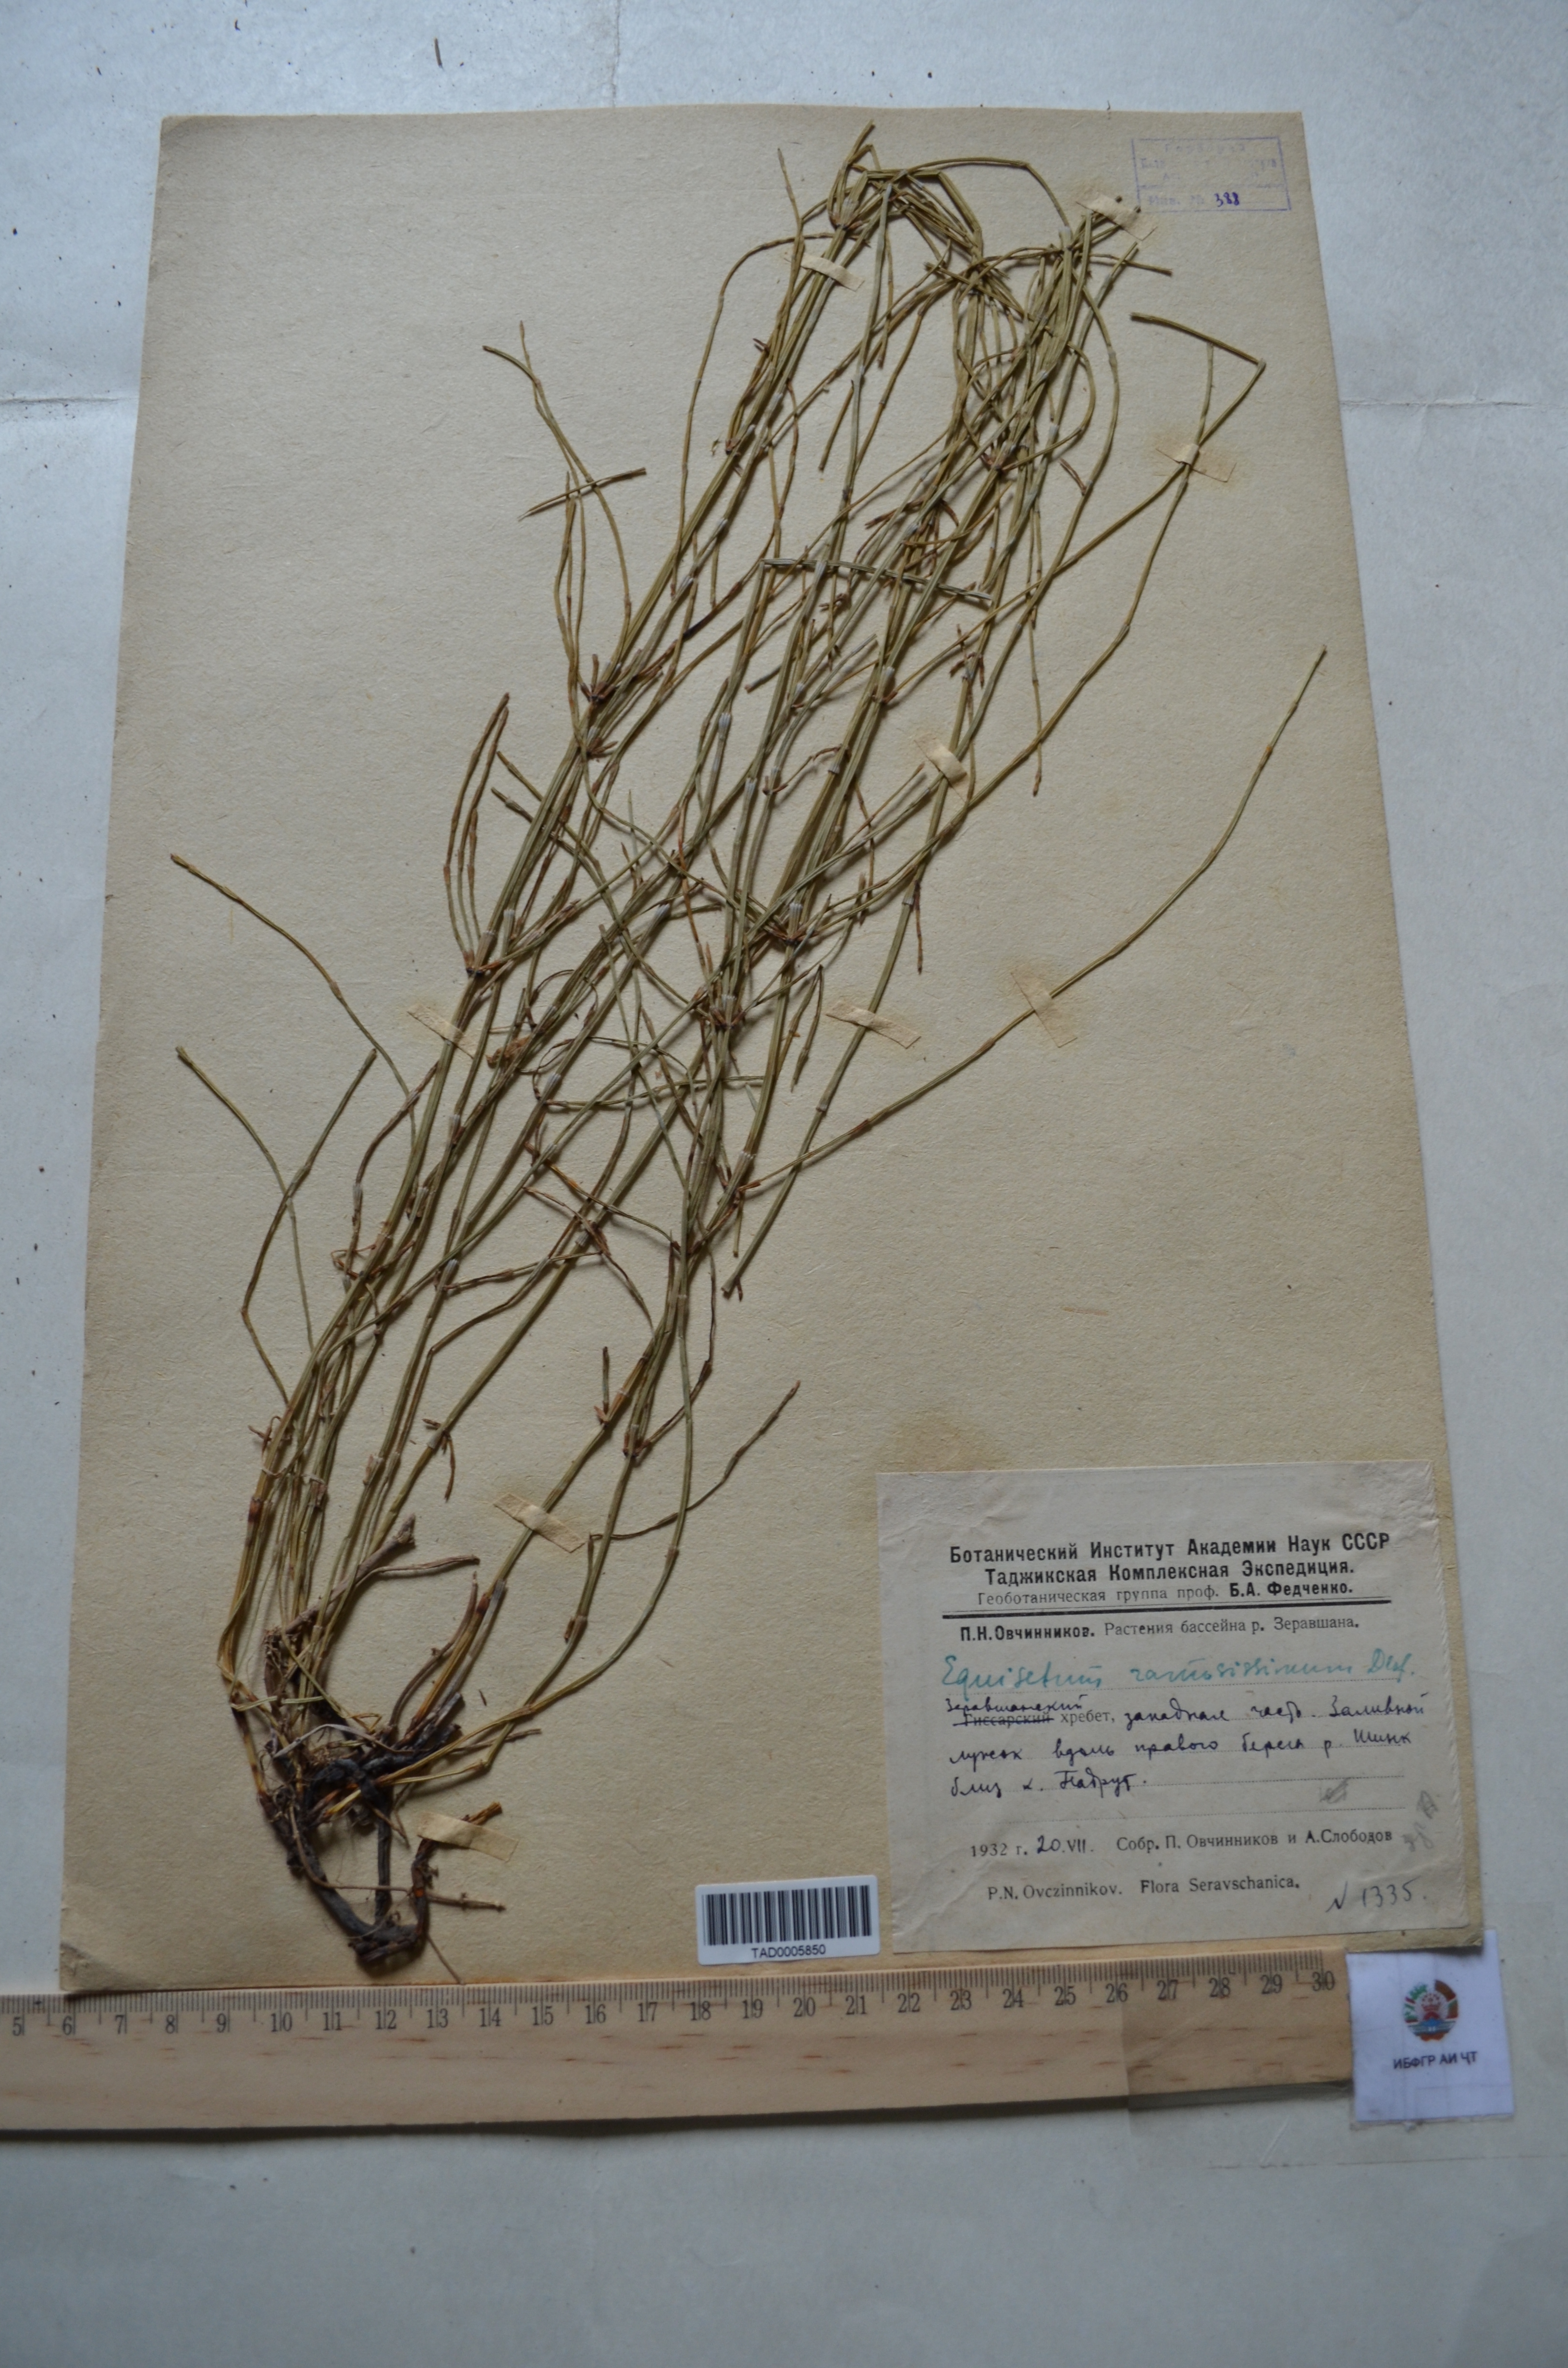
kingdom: Plantae
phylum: Tracheophyta
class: Polypodiopsida
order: Equisetales
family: Equisetaceae
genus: Equisetum
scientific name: Equisetum ramosissimum
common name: Branched horsetail
